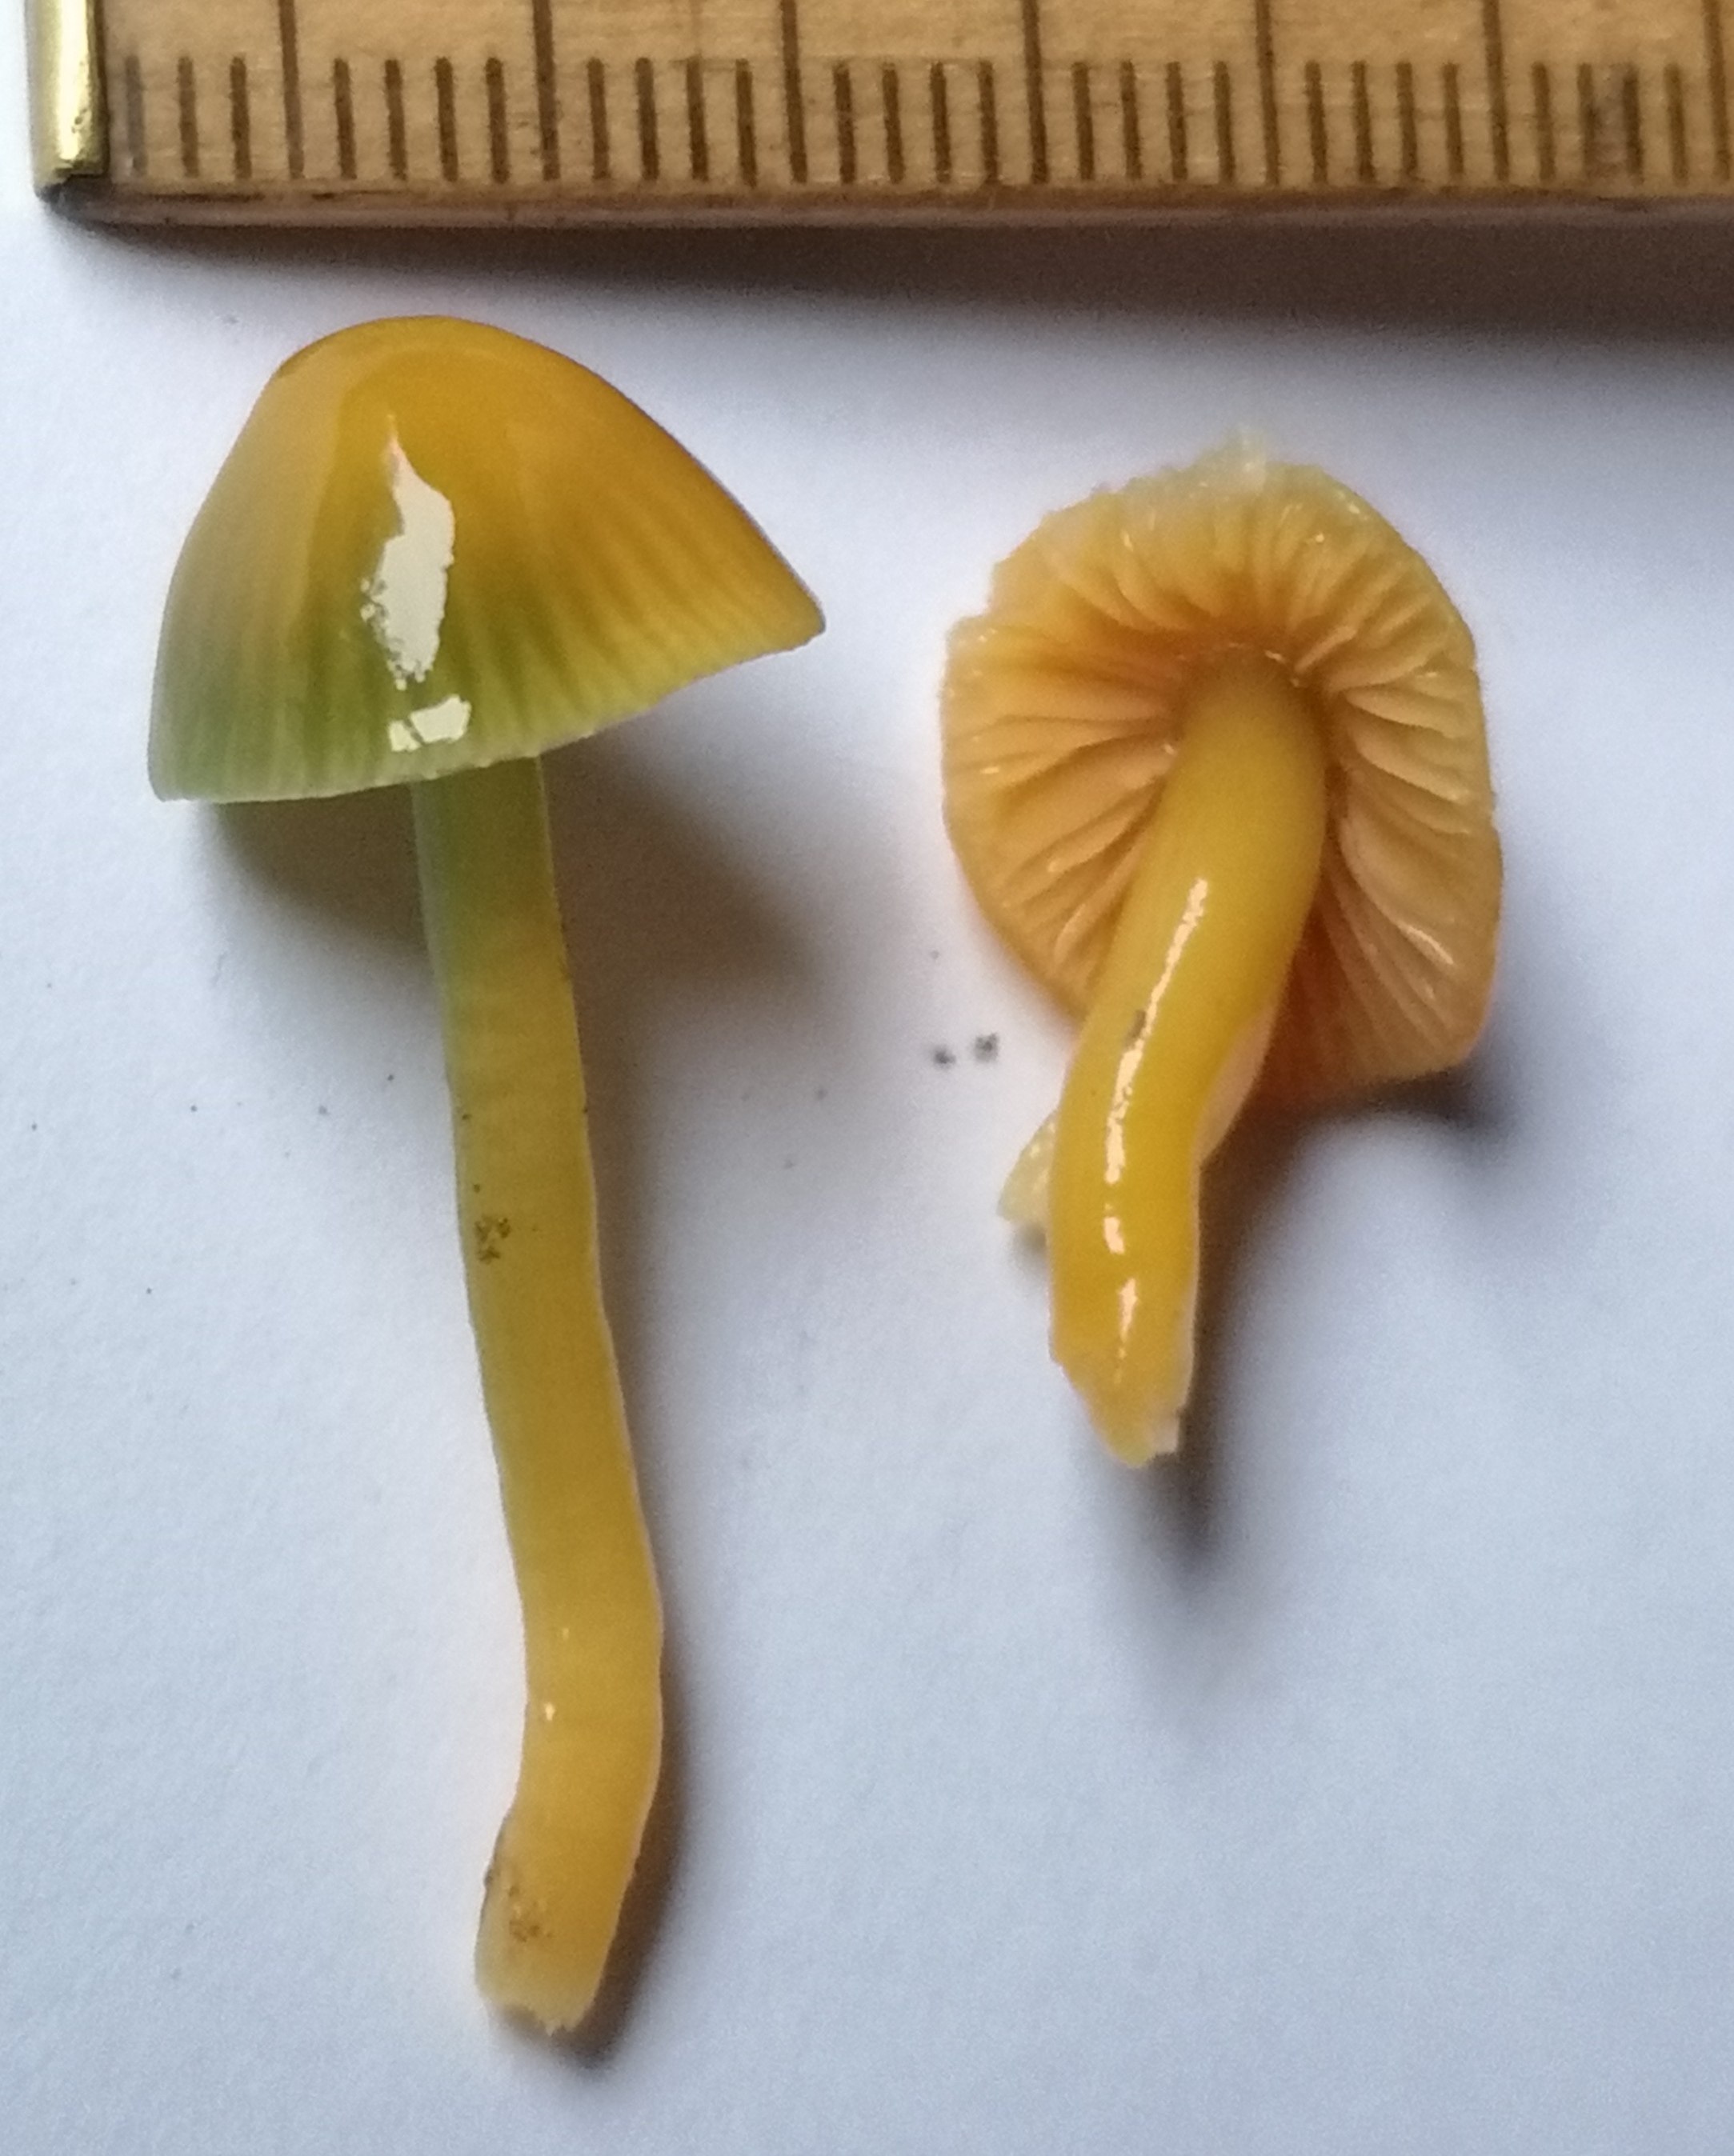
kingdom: Fungi
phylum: Basidiomycota
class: Agaricomycetes
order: Agaricales
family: Hygrophoraceae
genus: Gliophorus
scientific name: Gliophorus psittacinus
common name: papegøje-vokshat
